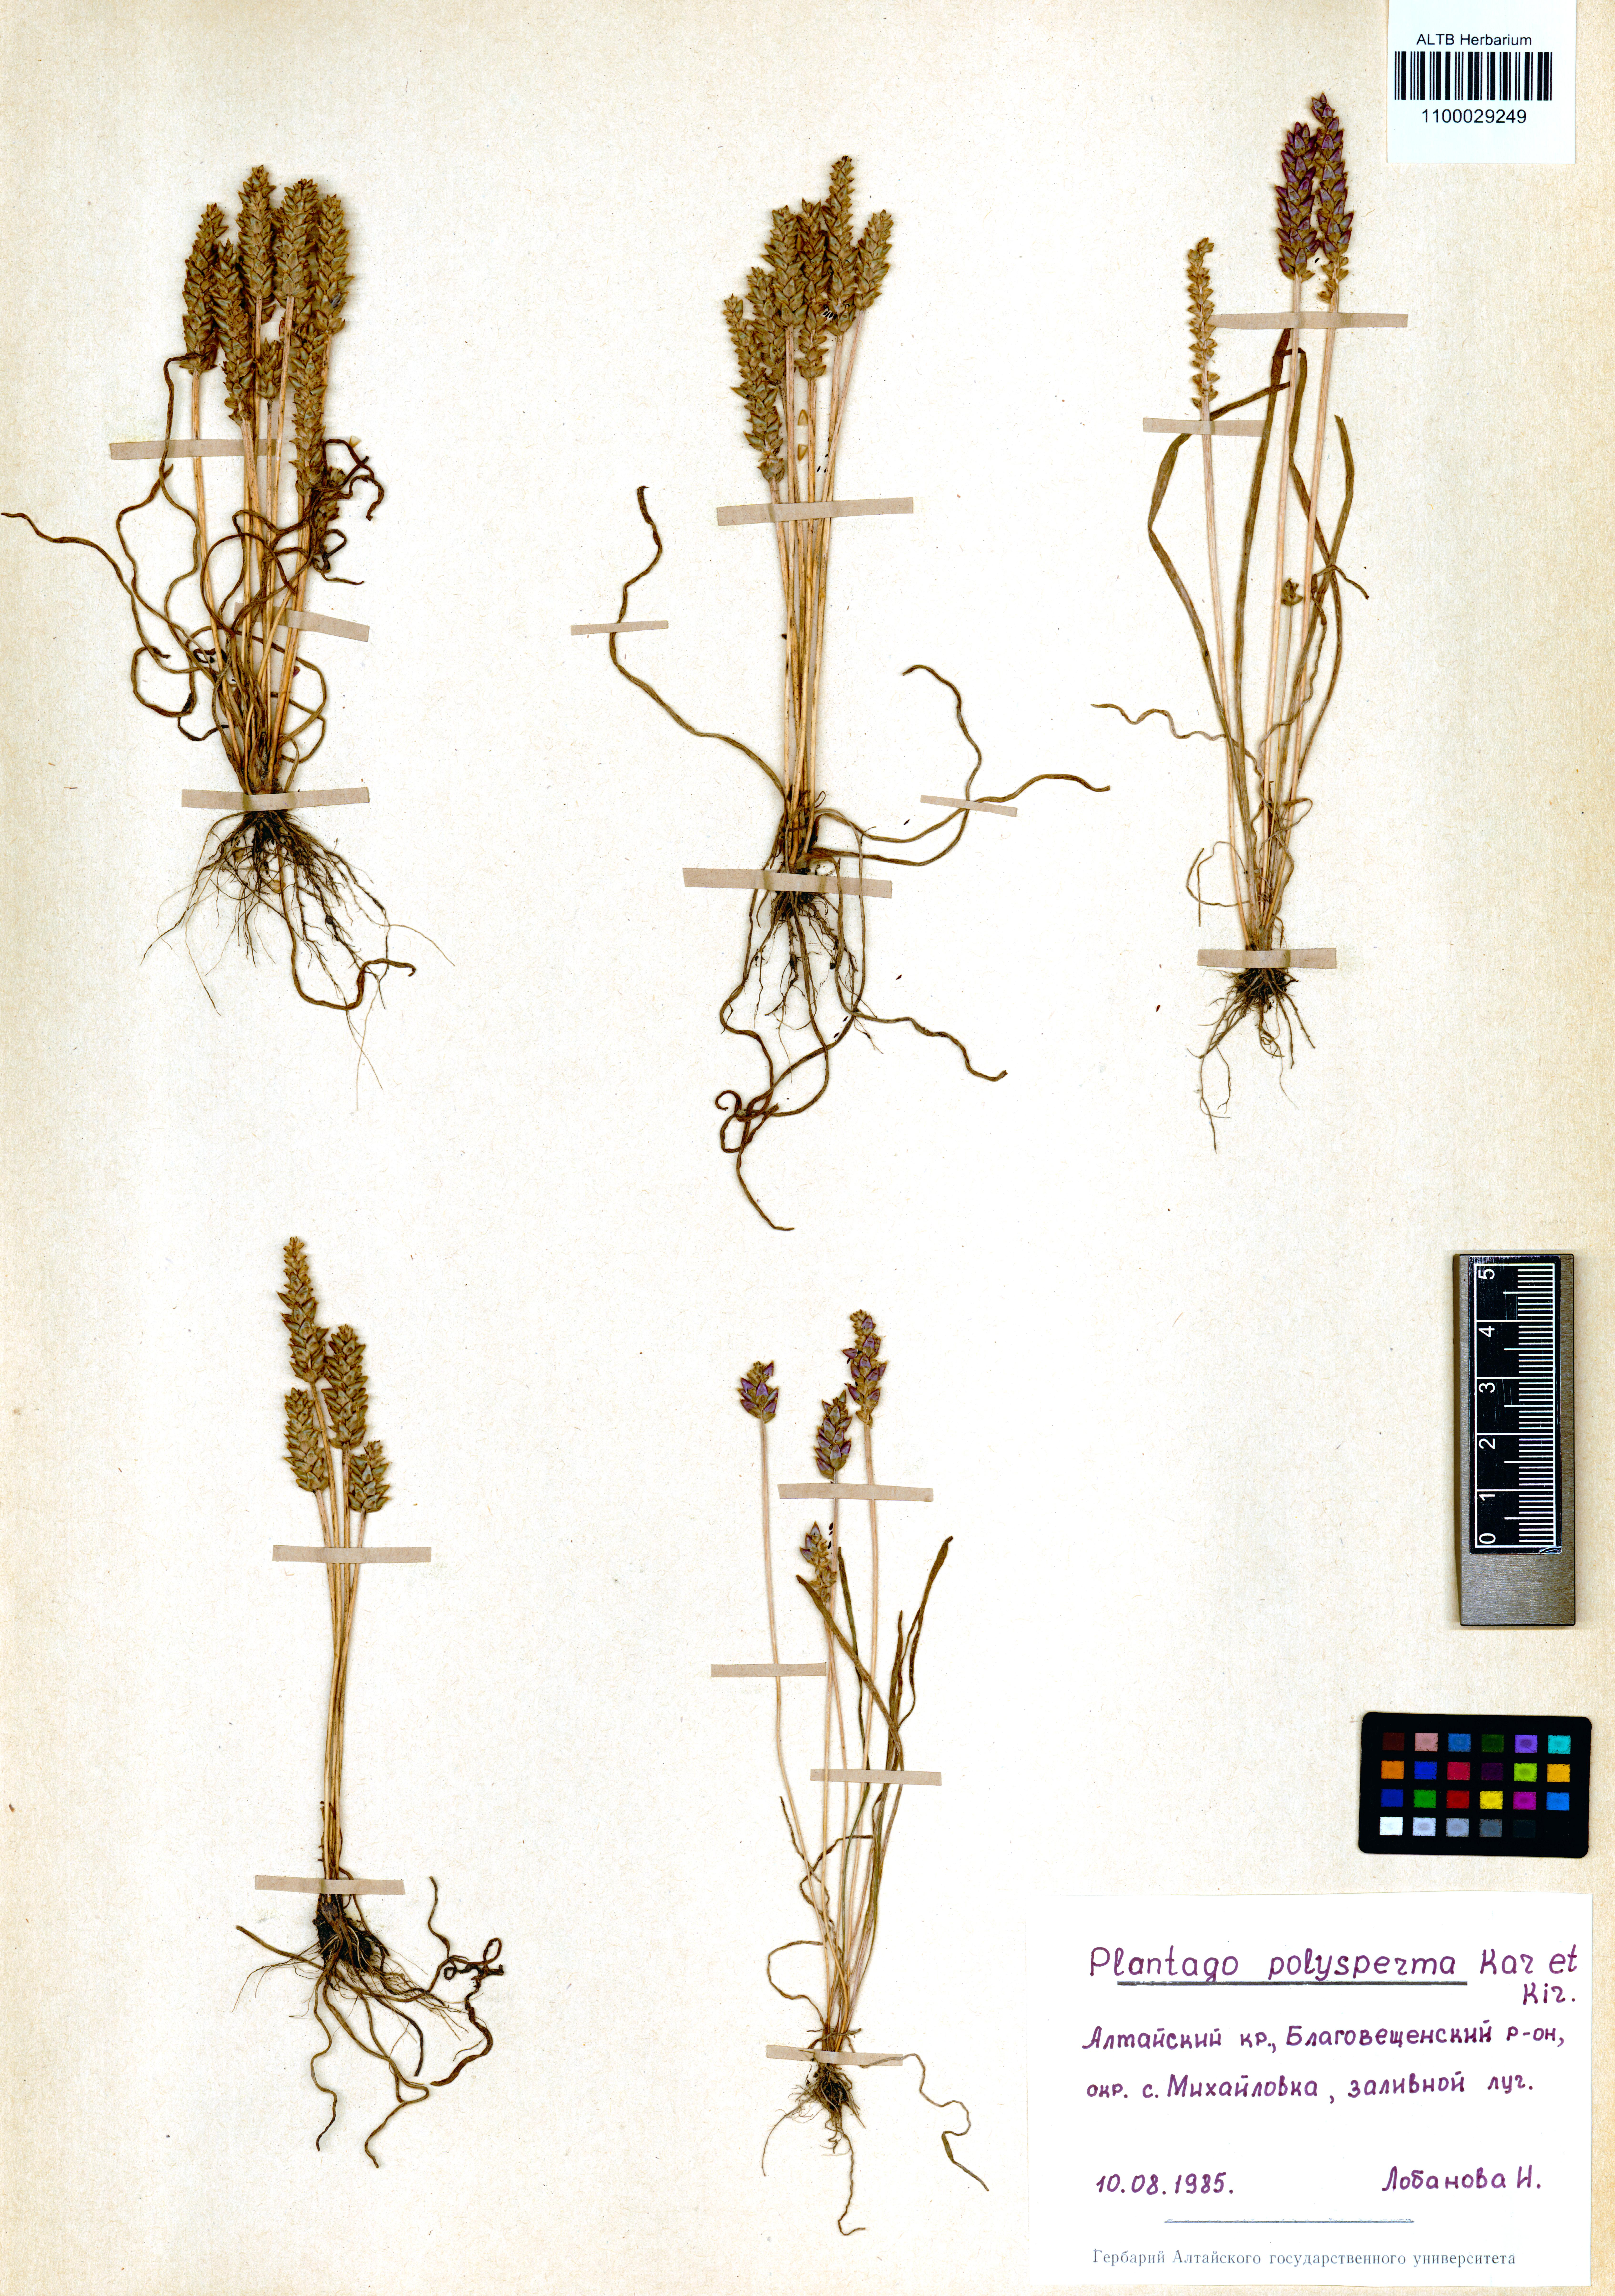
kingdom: Plantae
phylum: Tracheophyta
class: Magnoliopsida
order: Lamiales
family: Plantaginaceae
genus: Plantago
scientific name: Plantago polysperma
